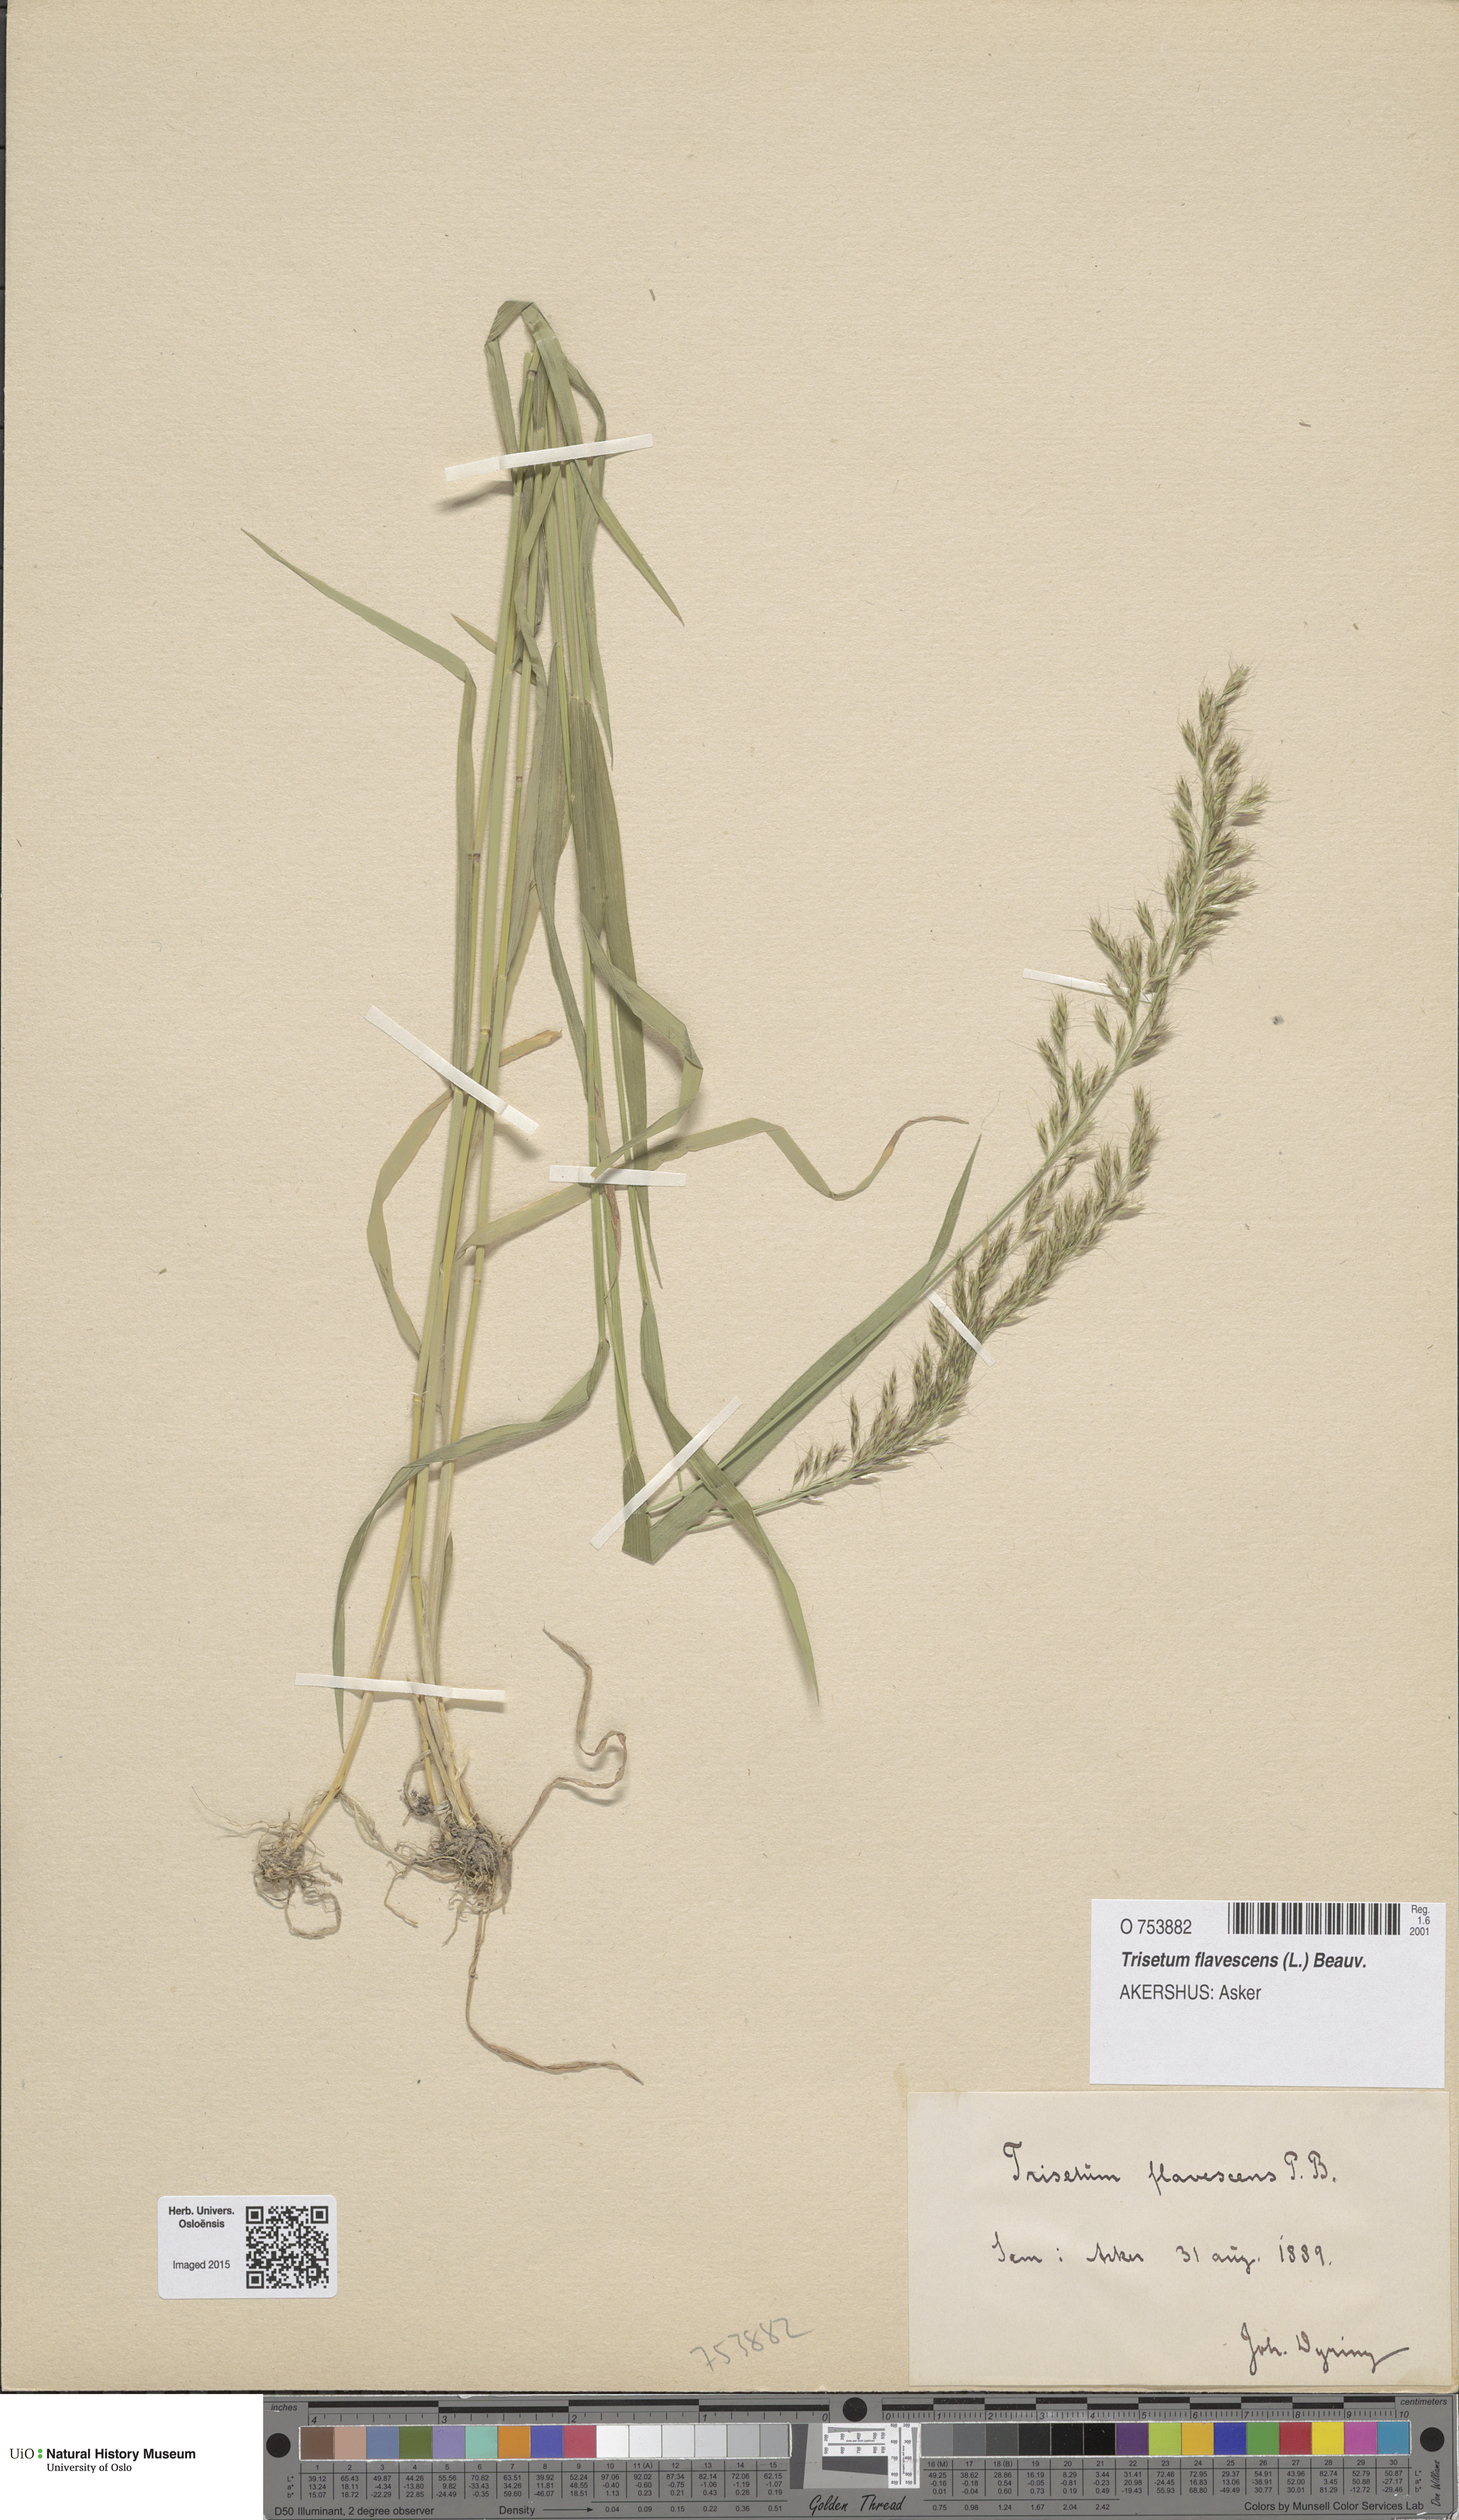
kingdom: Plantae
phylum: Tracheophyta
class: Liliopsida
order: Poales
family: Poaceae
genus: Trisetum
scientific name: Trisetum flavescens
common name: Yellow oat-grass
